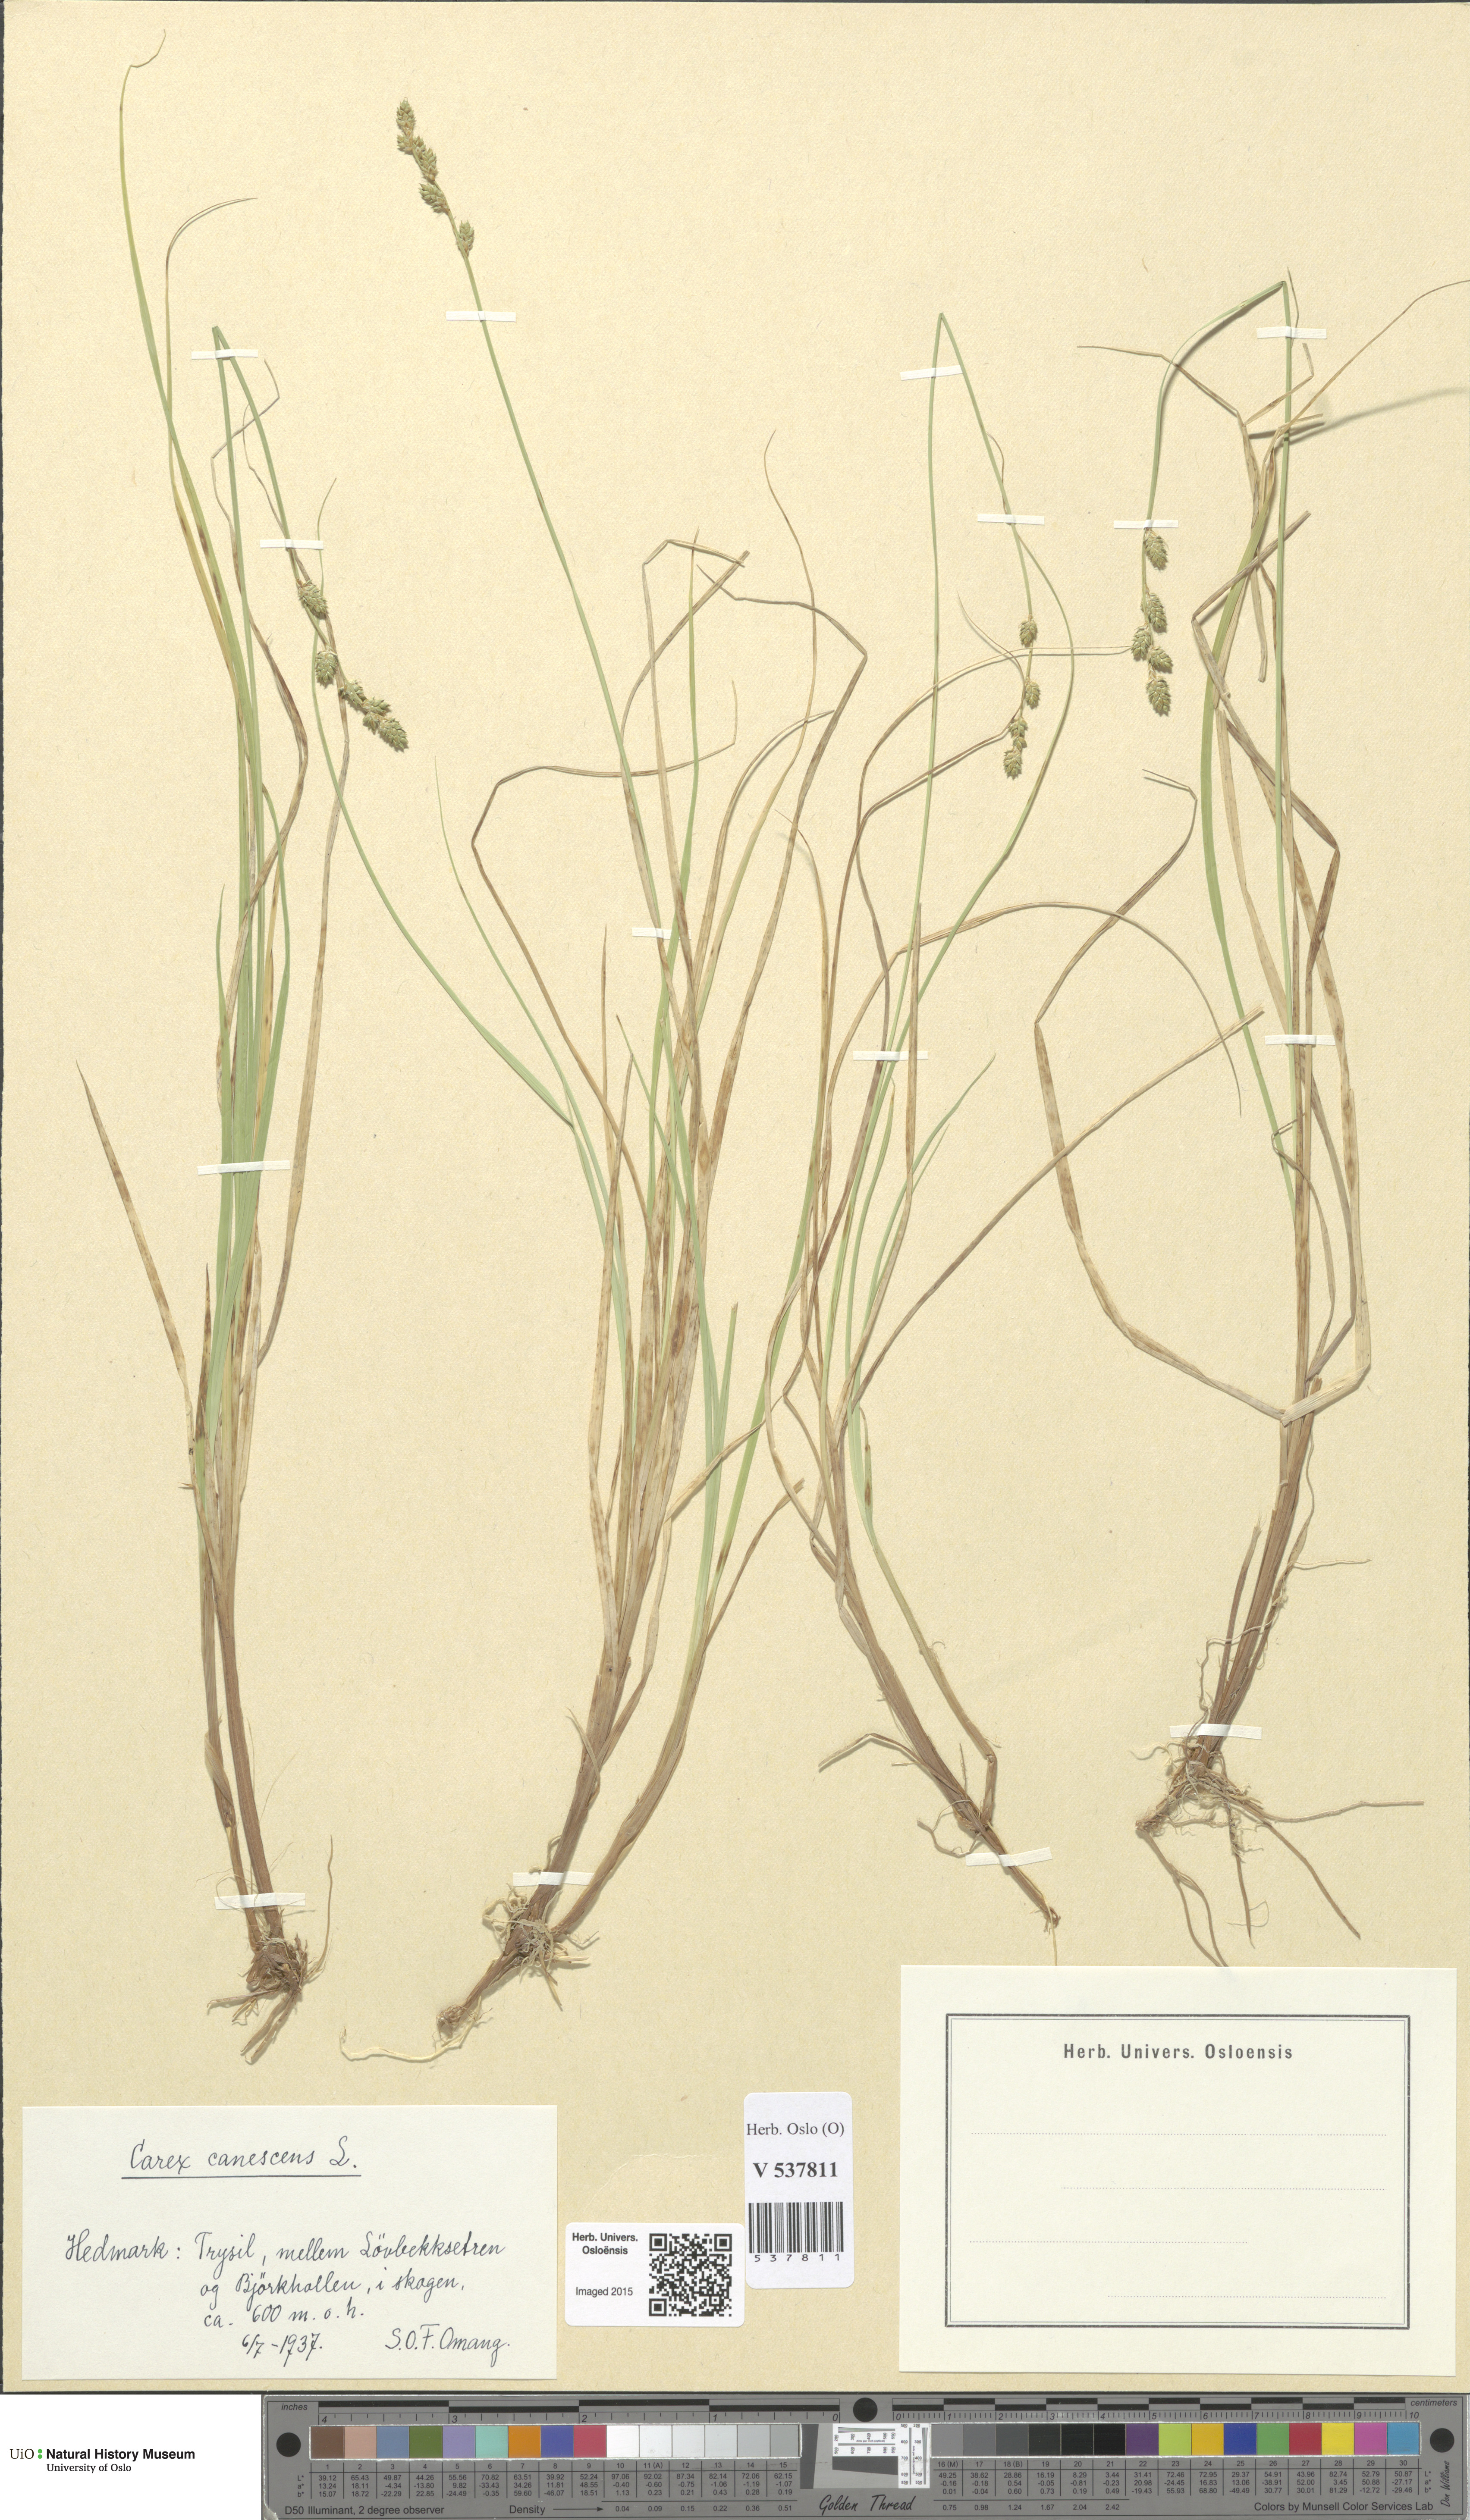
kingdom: Plantae
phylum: Tracheophyta
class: Liliopsida
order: Poales
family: Cyperaceae
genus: Carex
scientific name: Carex canescens
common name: White sedge
